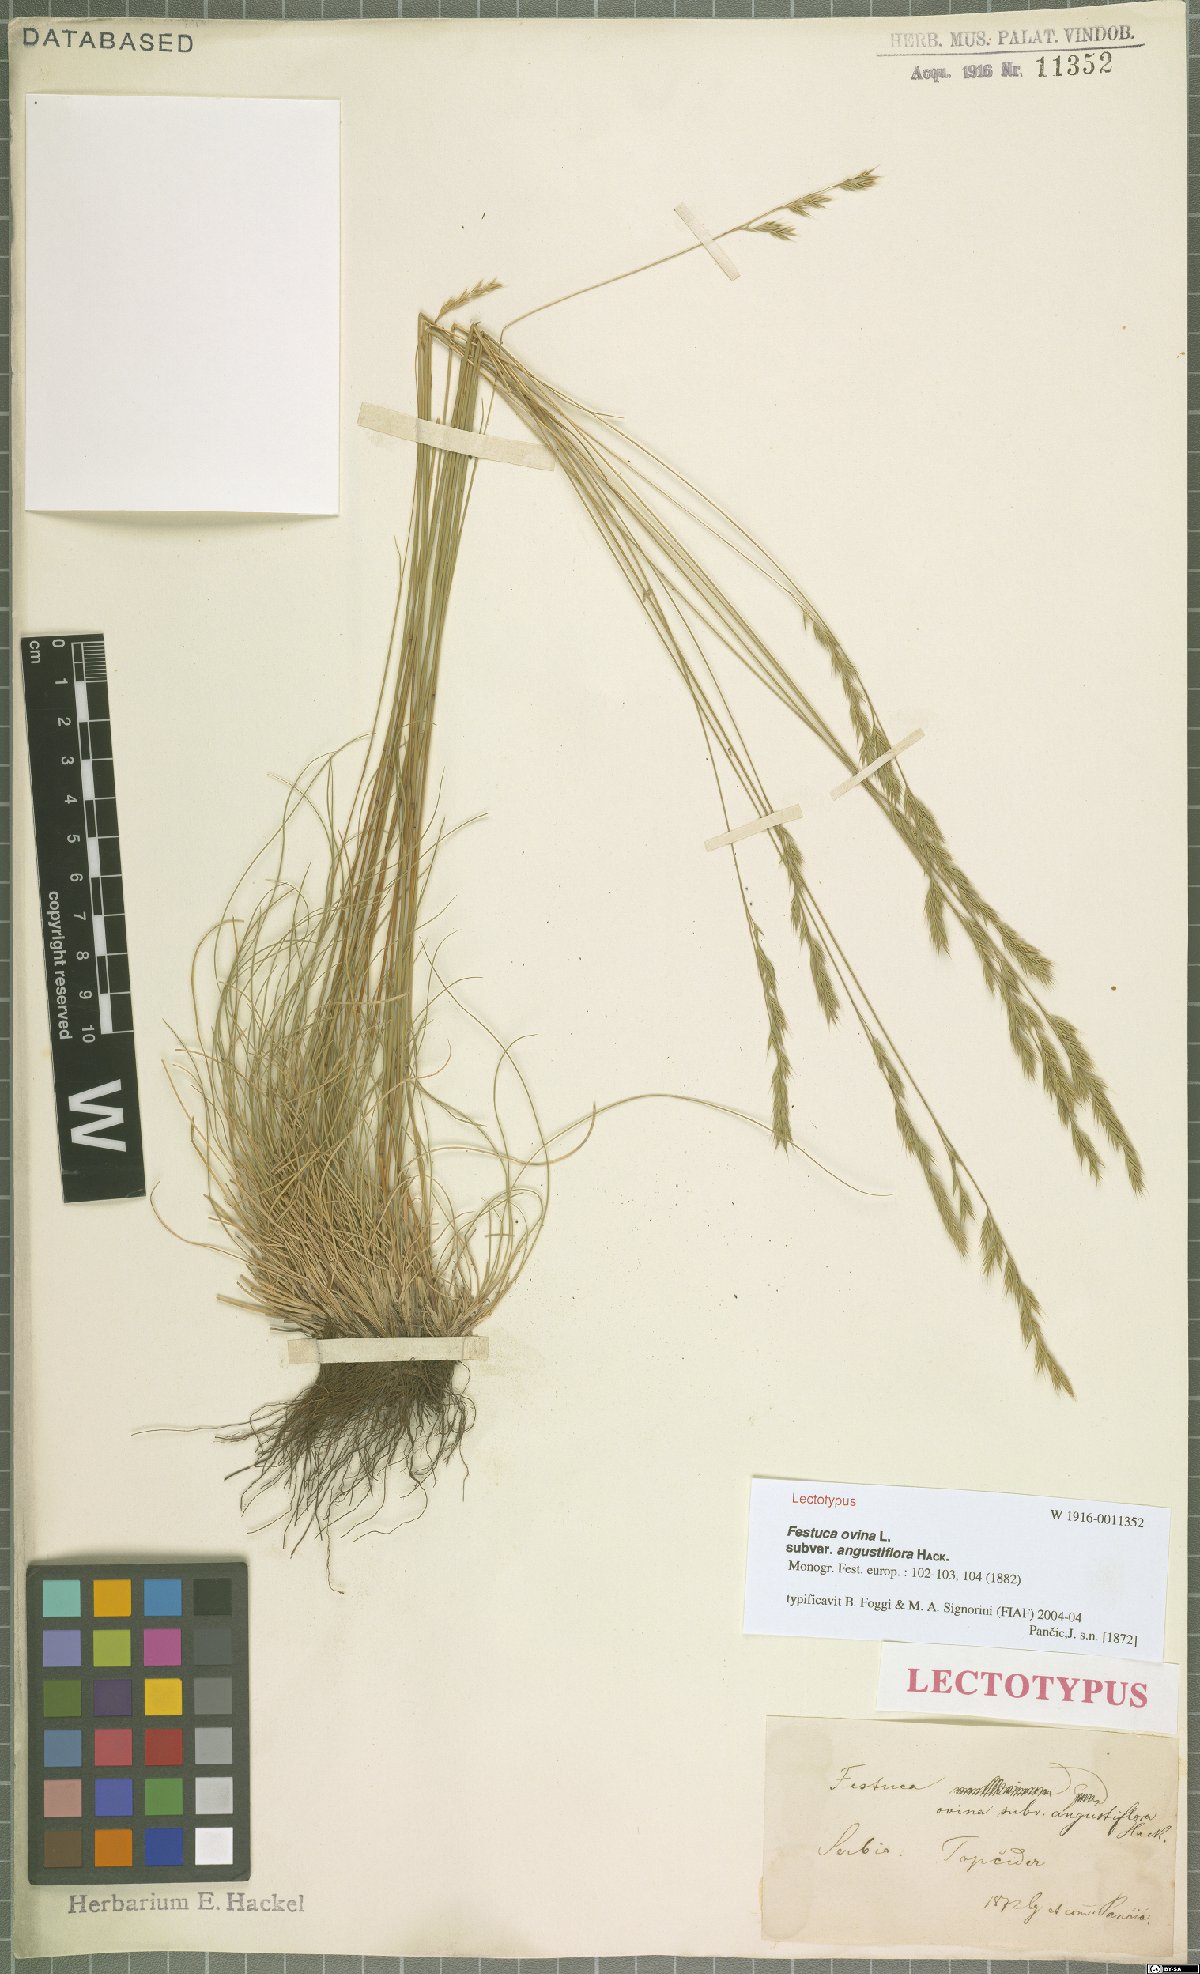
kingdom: Plantae
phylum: Tracheophyta
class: Liliopsida
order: Poales
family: Poaceae
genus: Festuca
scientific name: Festuca ovina
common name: Sheep fescue
